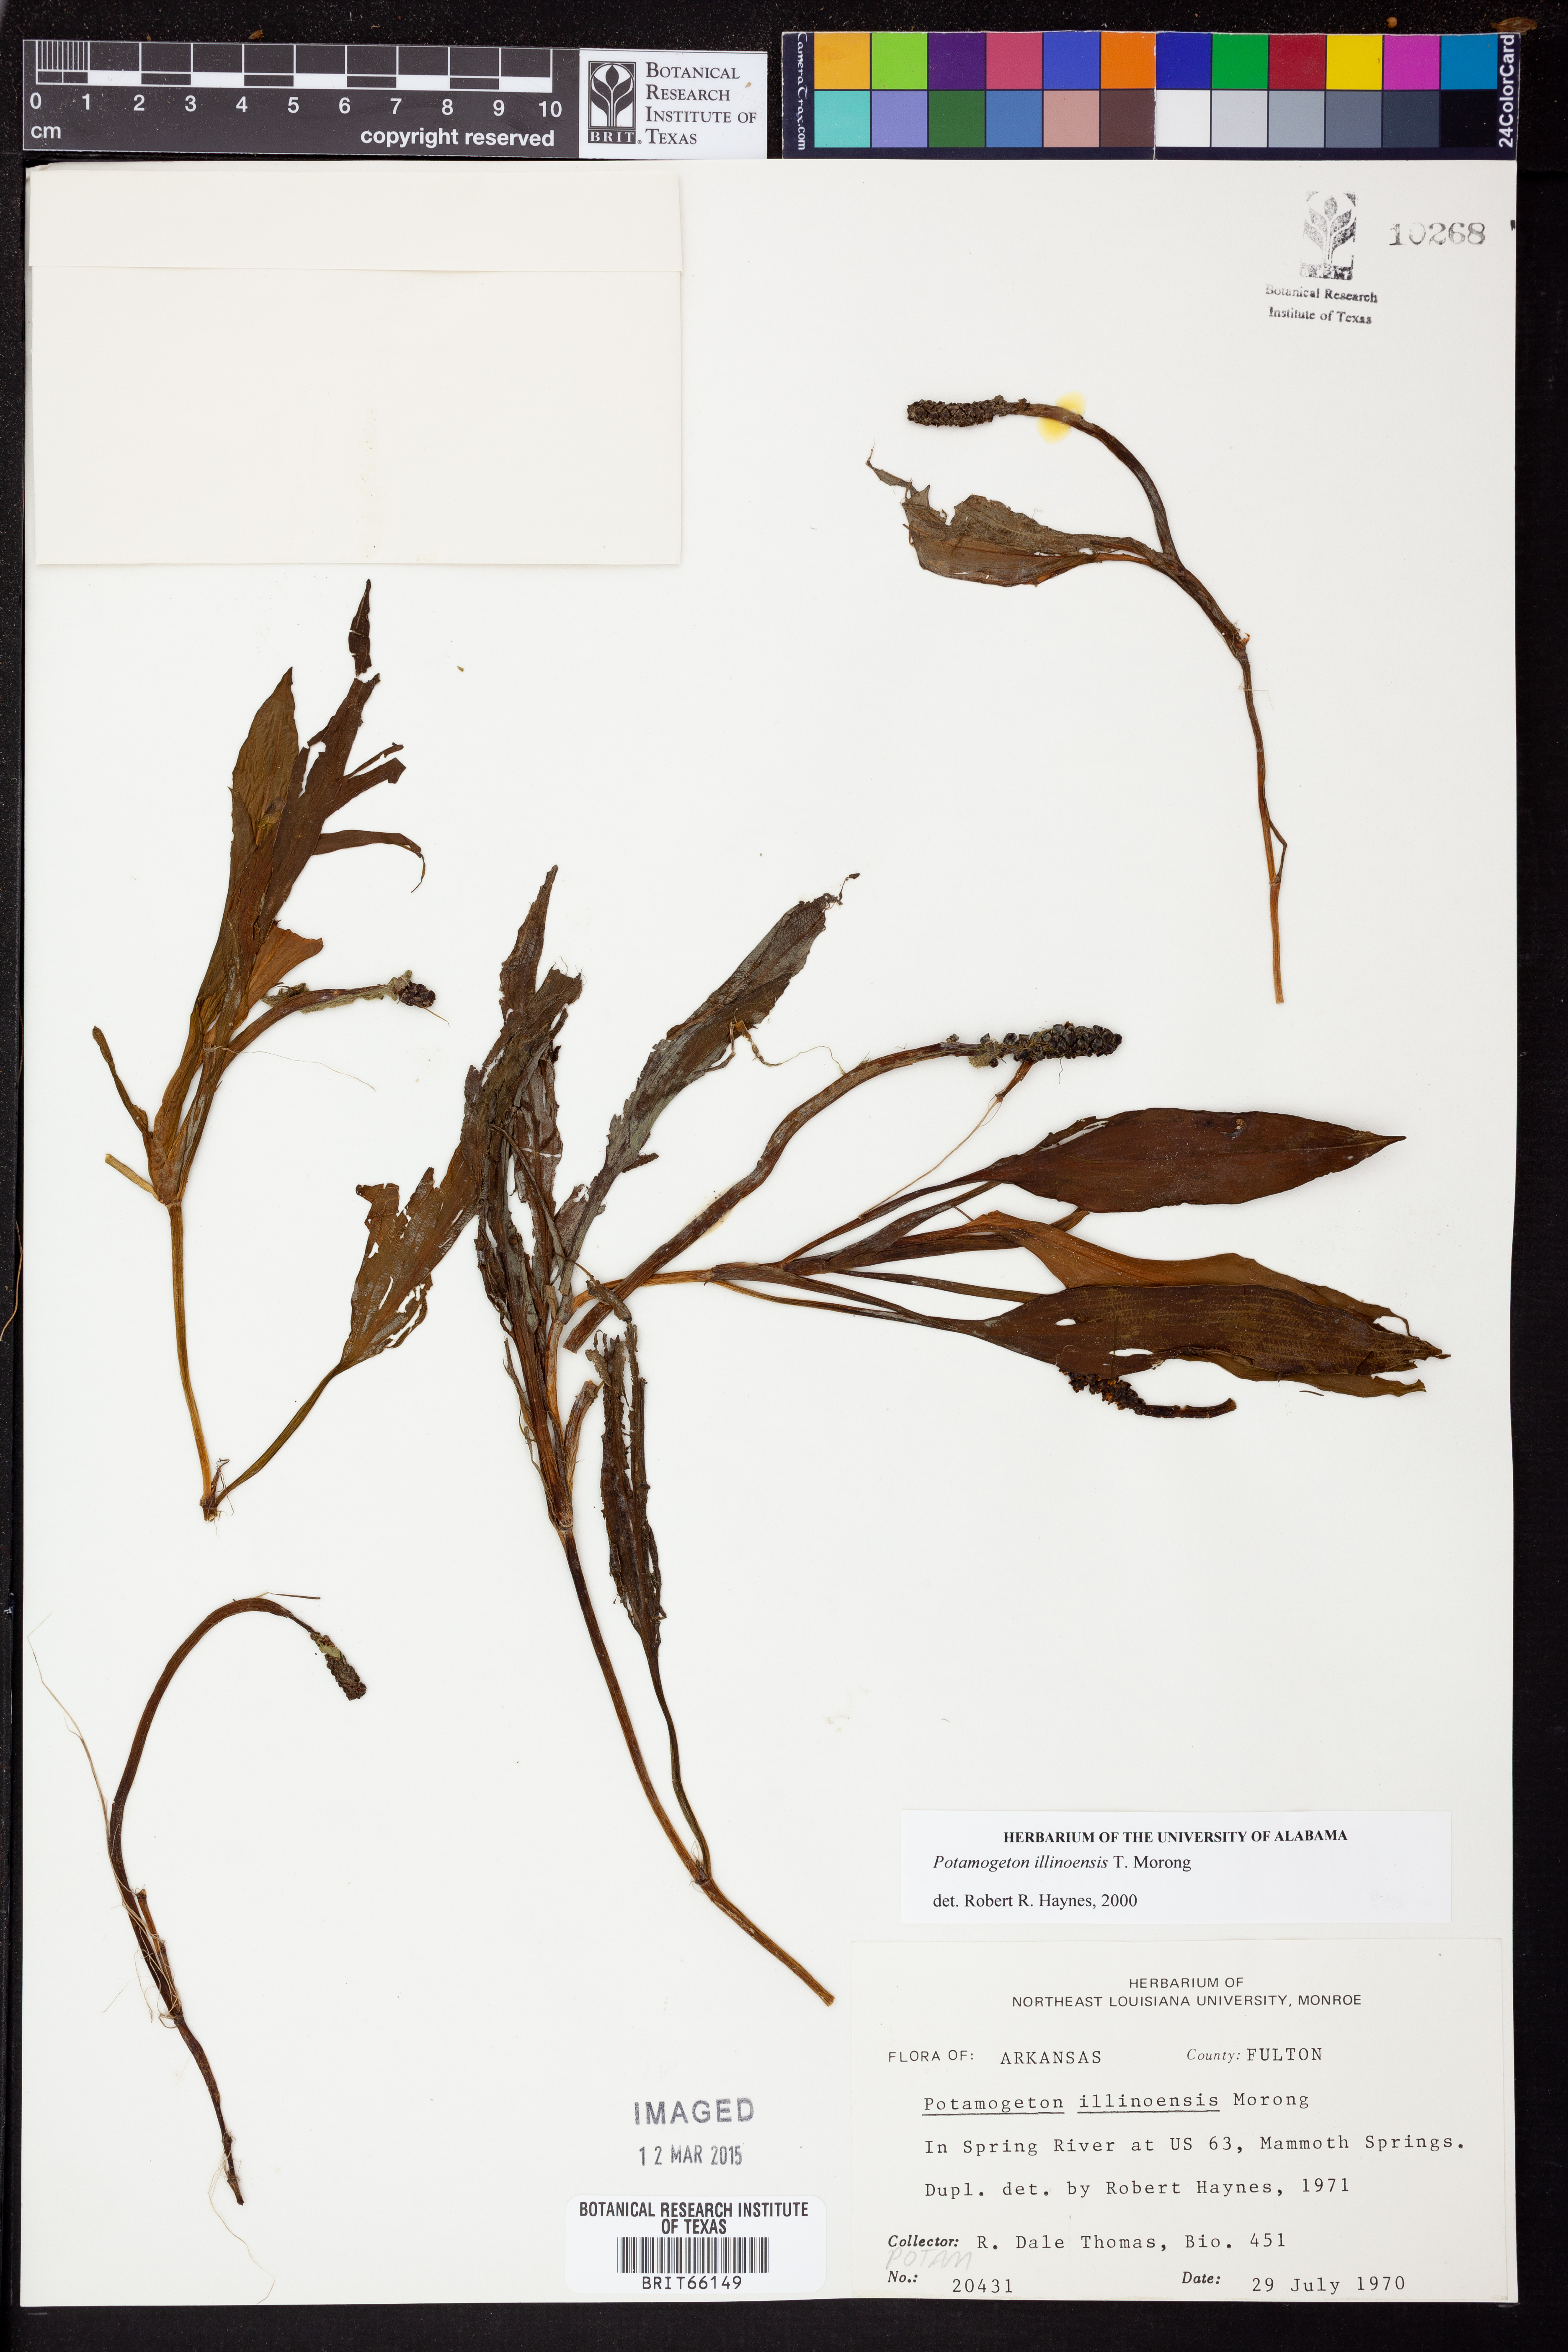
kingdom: Plantae
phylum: Tracheophyta
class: Liliopsida
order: Alismatales
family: Potamogetonaceae
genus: Potamogeton
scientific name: Potamogeton illinoensis
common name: Illinois pondweed
